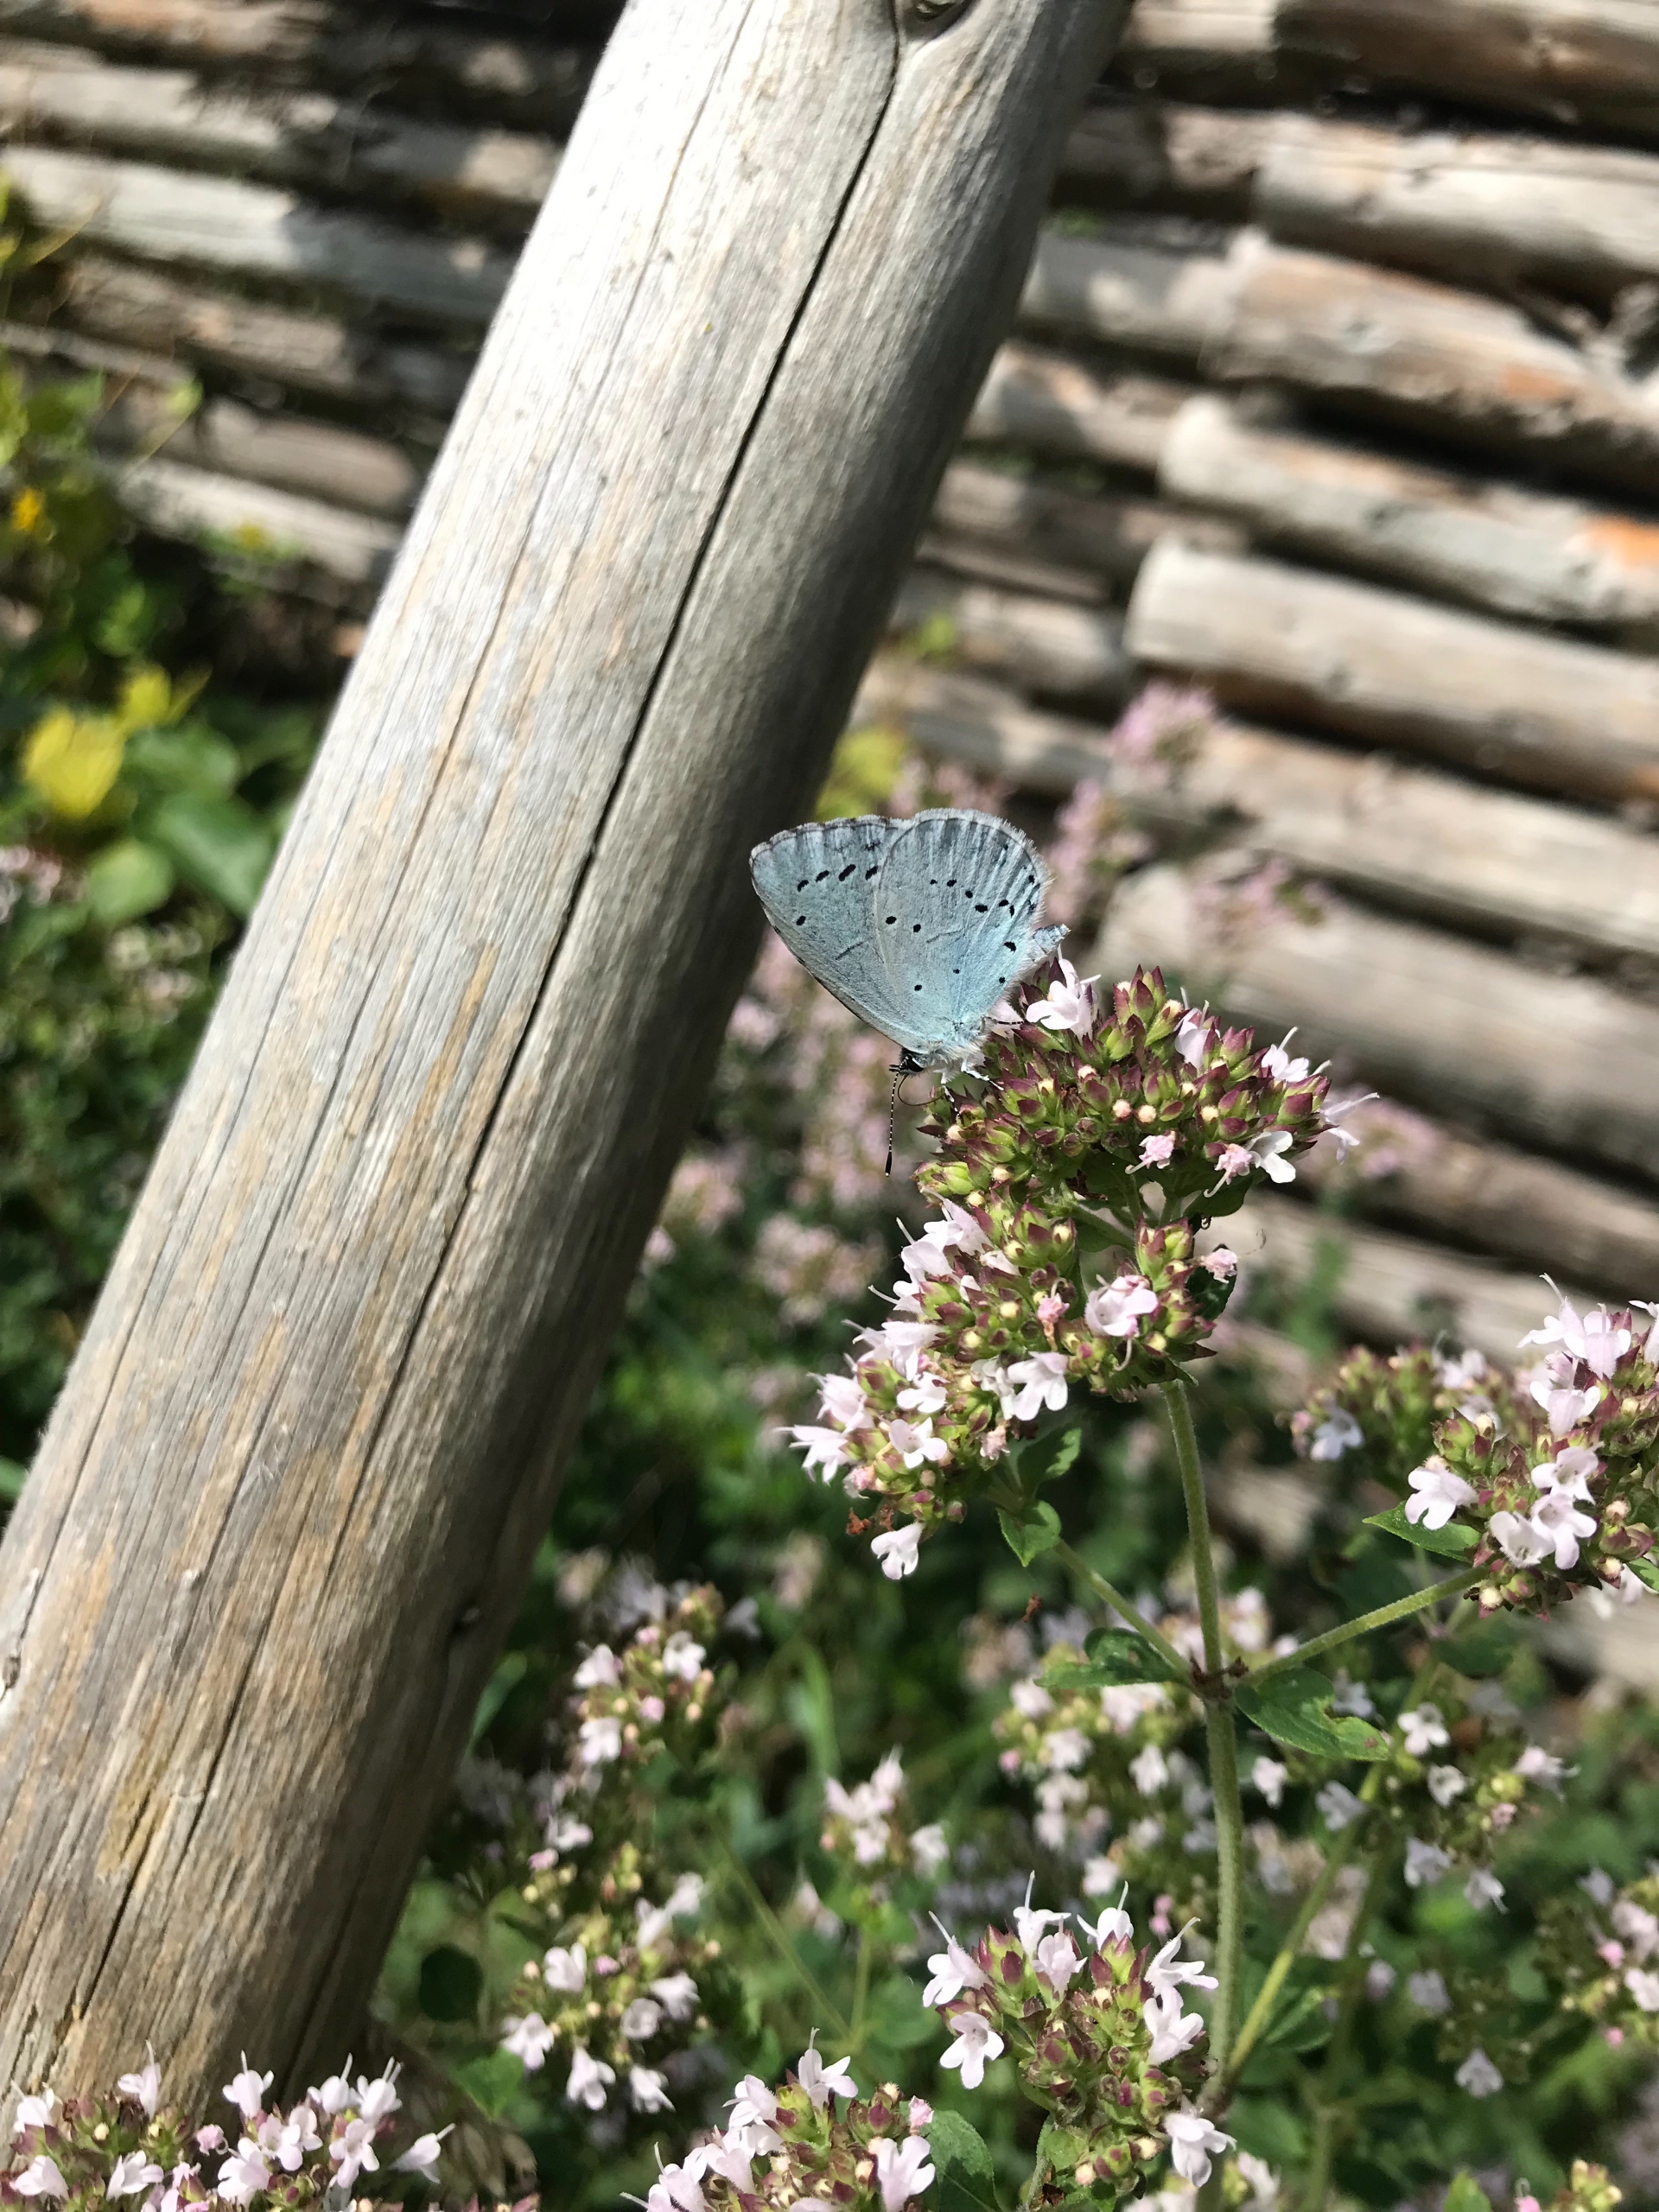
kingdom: Animalia
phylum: Arthropoda
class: Insecta
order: Lepidoptera
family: Lycaenidae
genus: Celastrina
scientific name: Celastrina argiolus
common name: Skovblåfugl
